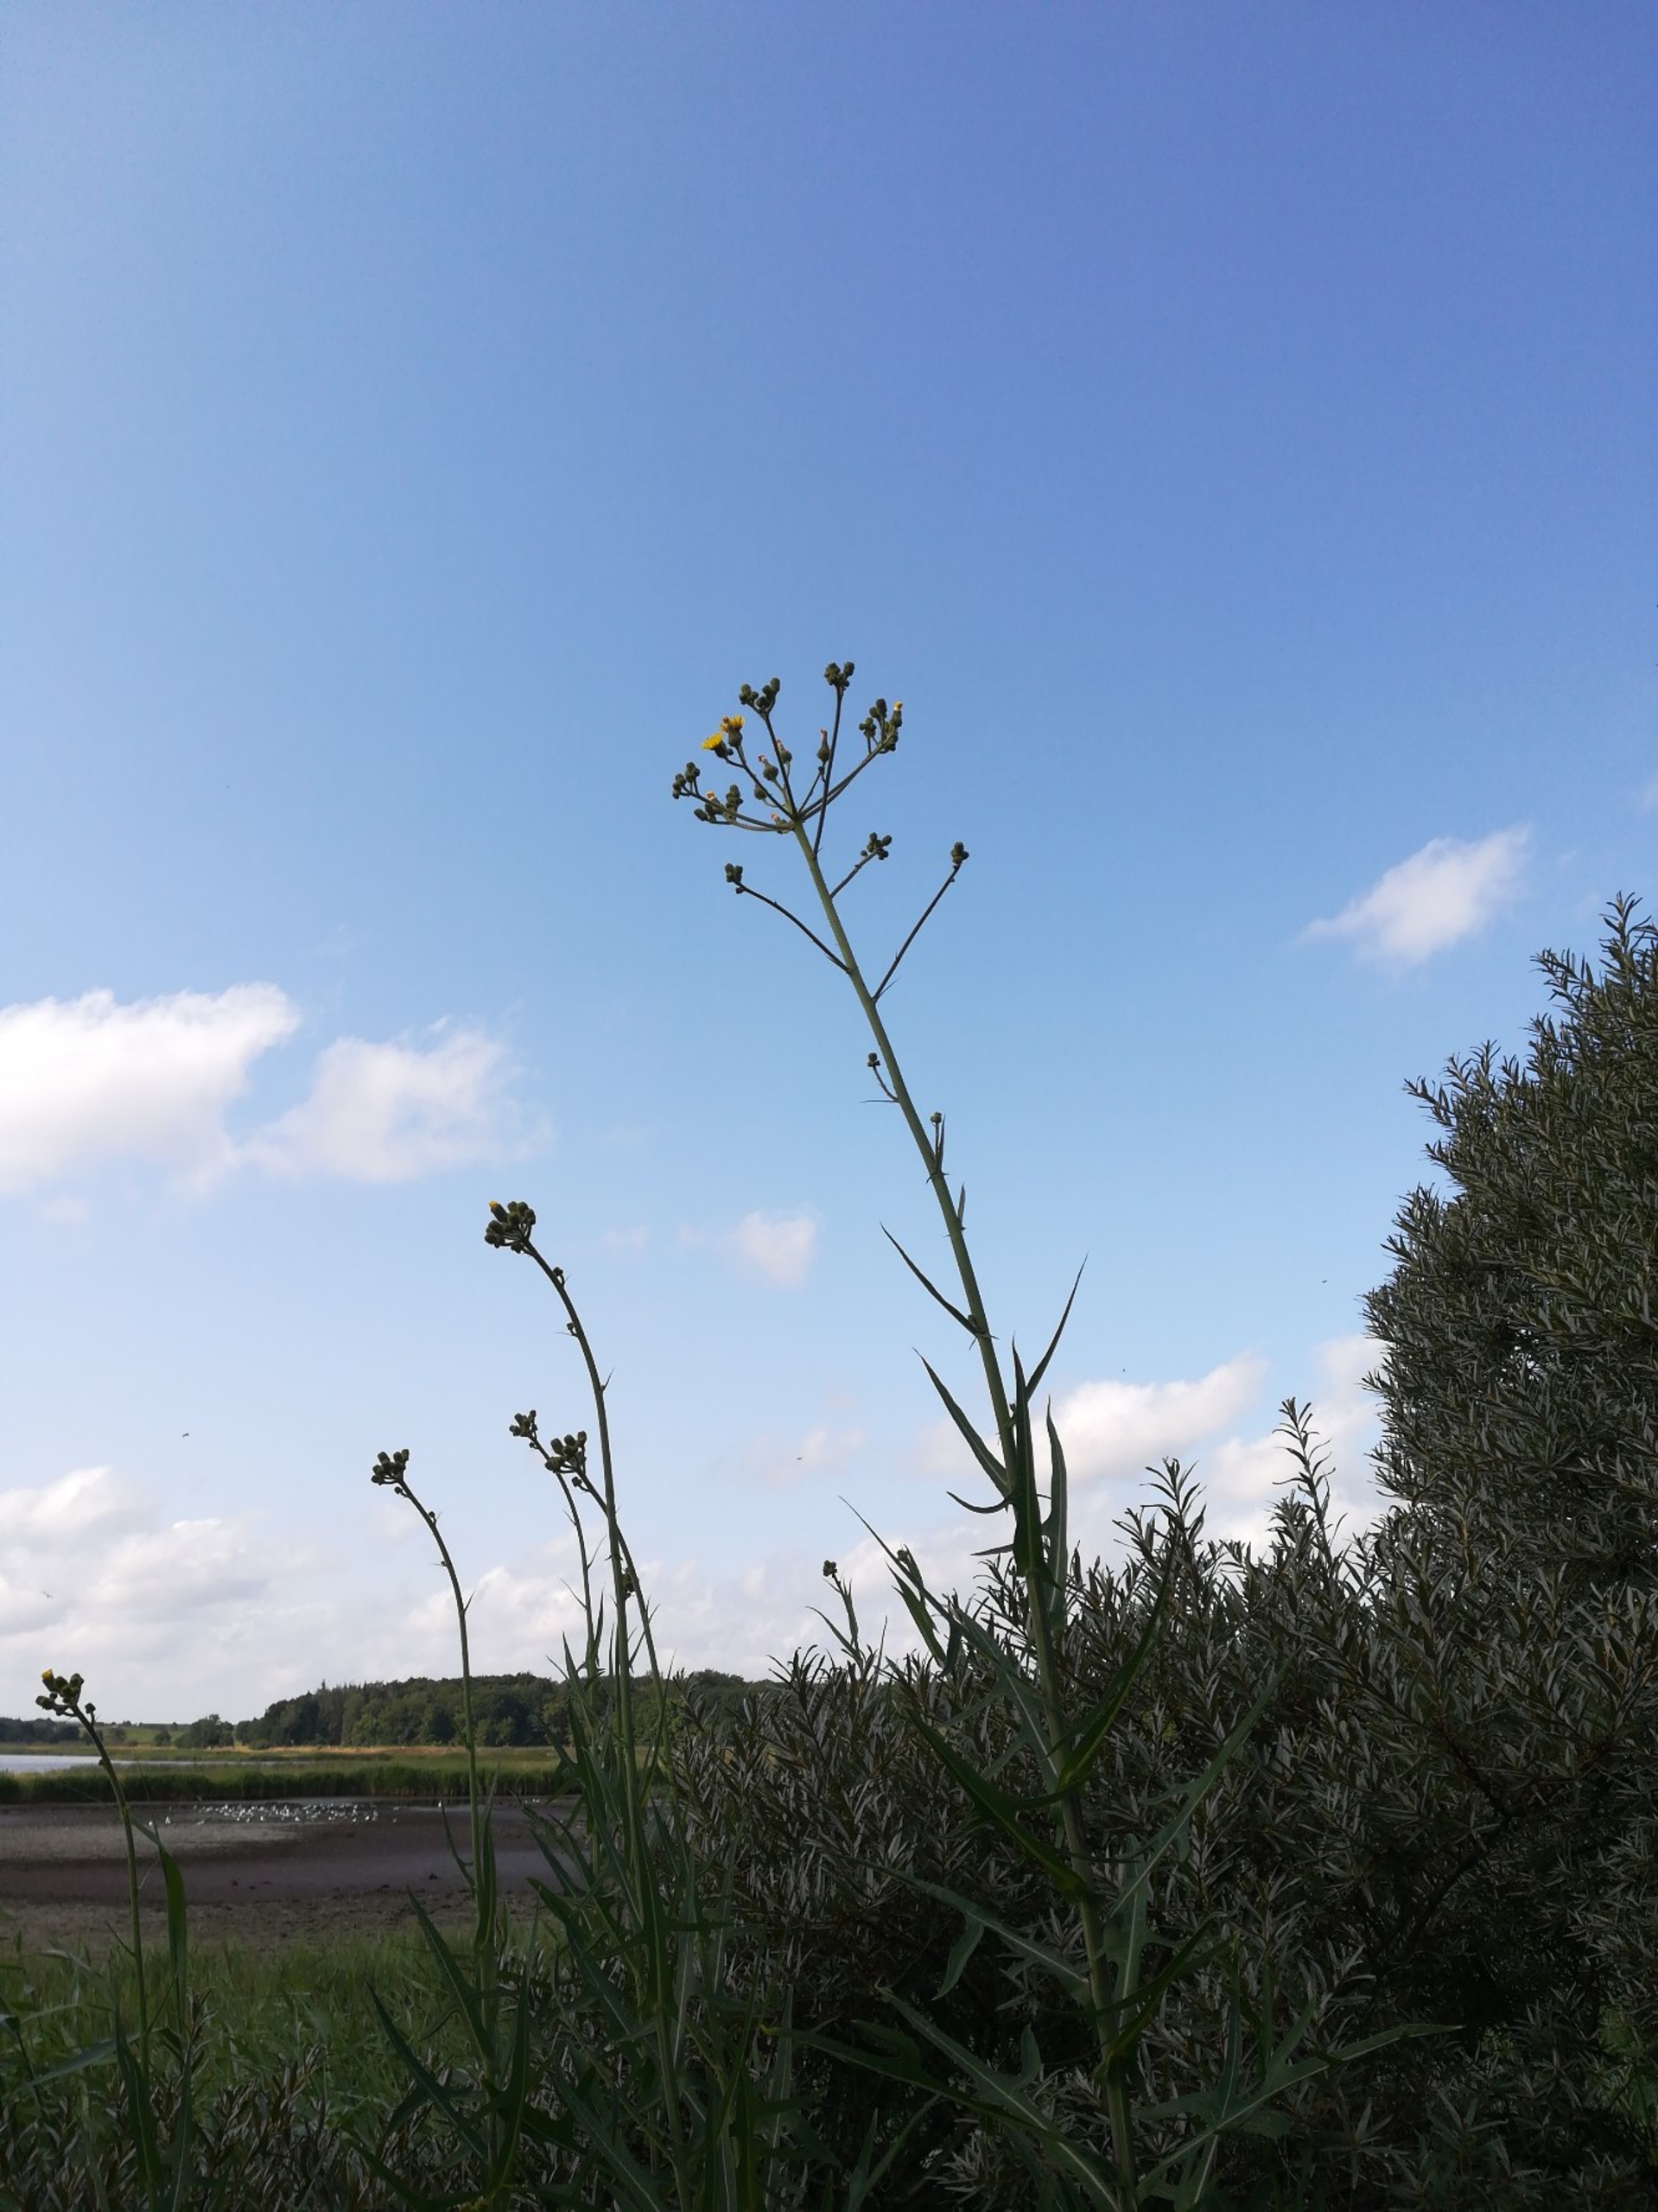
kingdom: Plantae
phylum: Tracheophyta
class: Magnoliopsida
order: Asterales
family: Asteraceae
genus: Sonchus
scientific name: Sonchus palustris
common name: Kær-svinemælk
